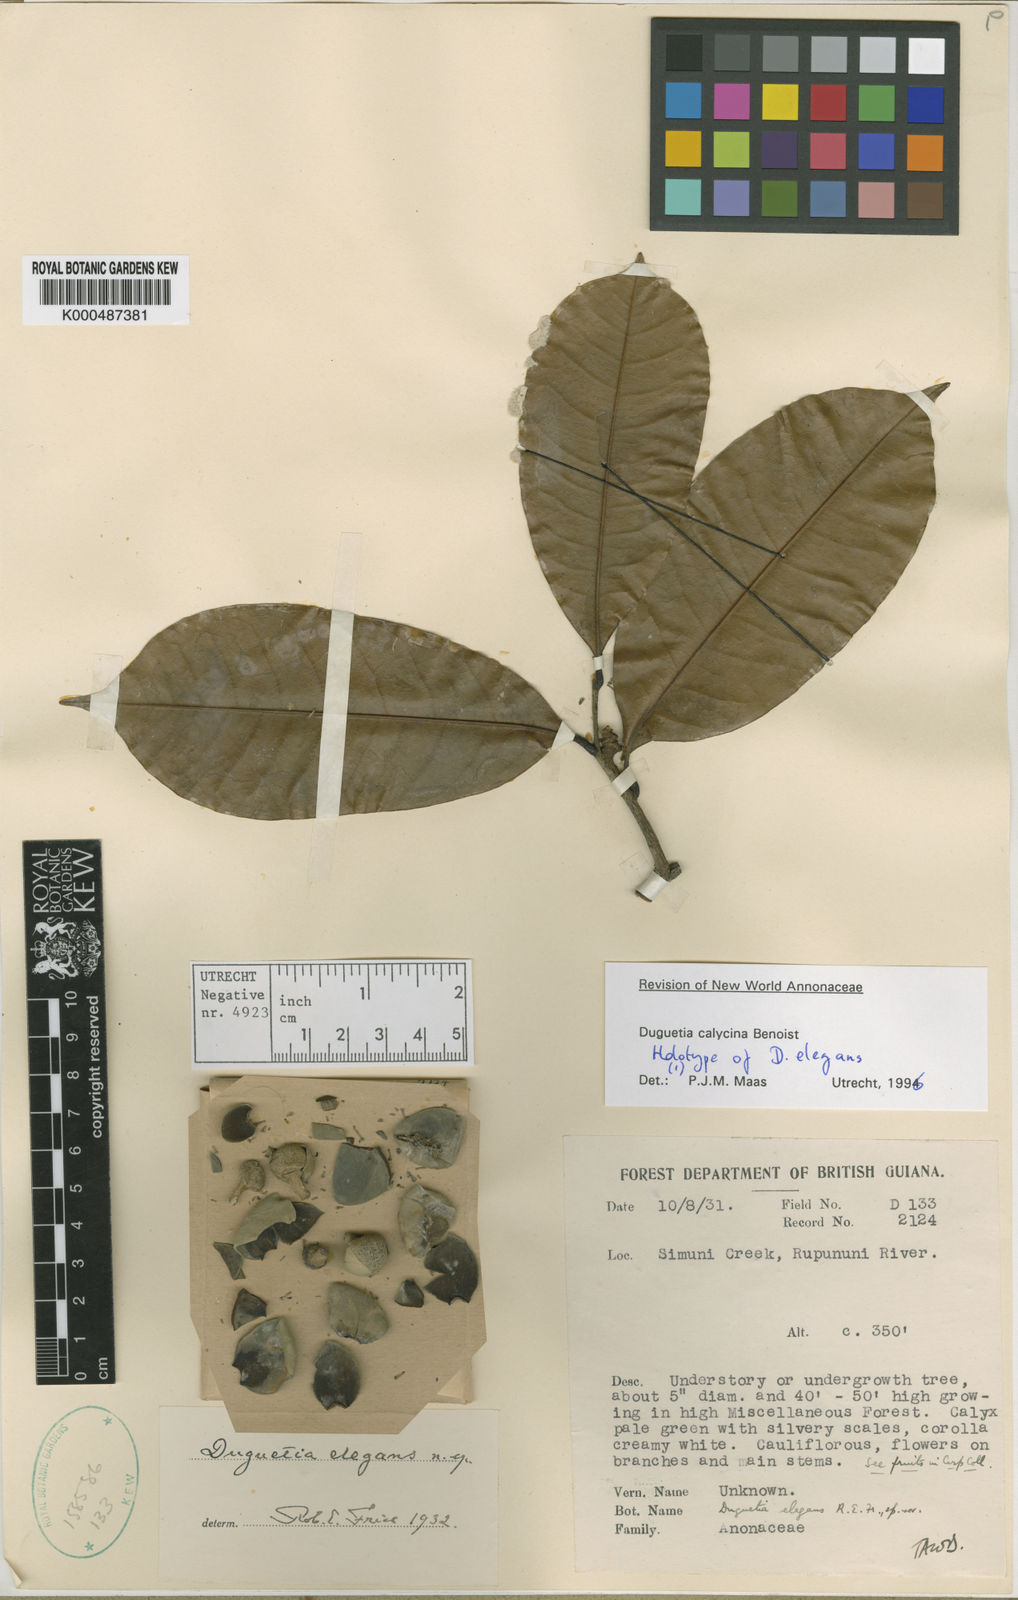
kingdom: Plantae
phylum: Tracheophyta
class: Magnoliopsida
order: Magnoliales
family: Annonaceae
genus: Duguetia
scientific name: Duguetia calycina
